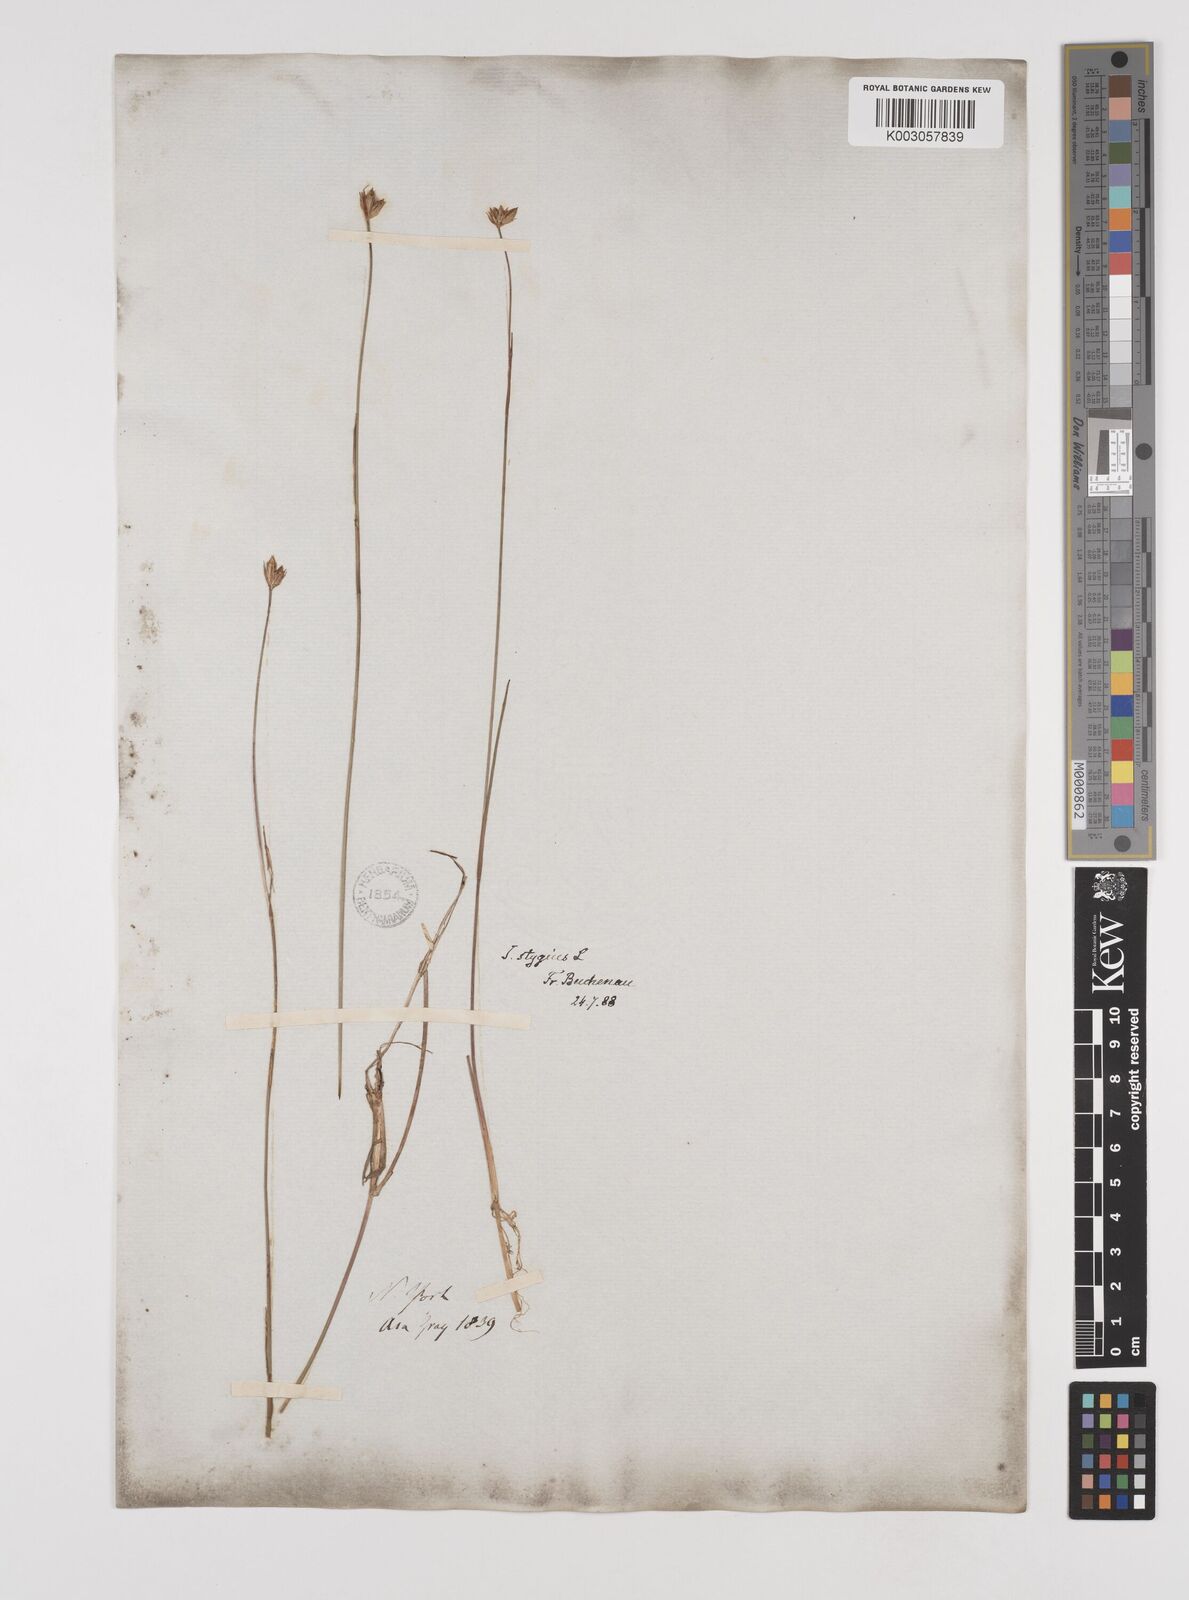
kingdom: Plantae
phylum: Tracheophyta
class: Liliopsida
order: Poales
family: Juncaceae
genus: Juncus
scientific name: Juncus stygius
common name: Bog rush
